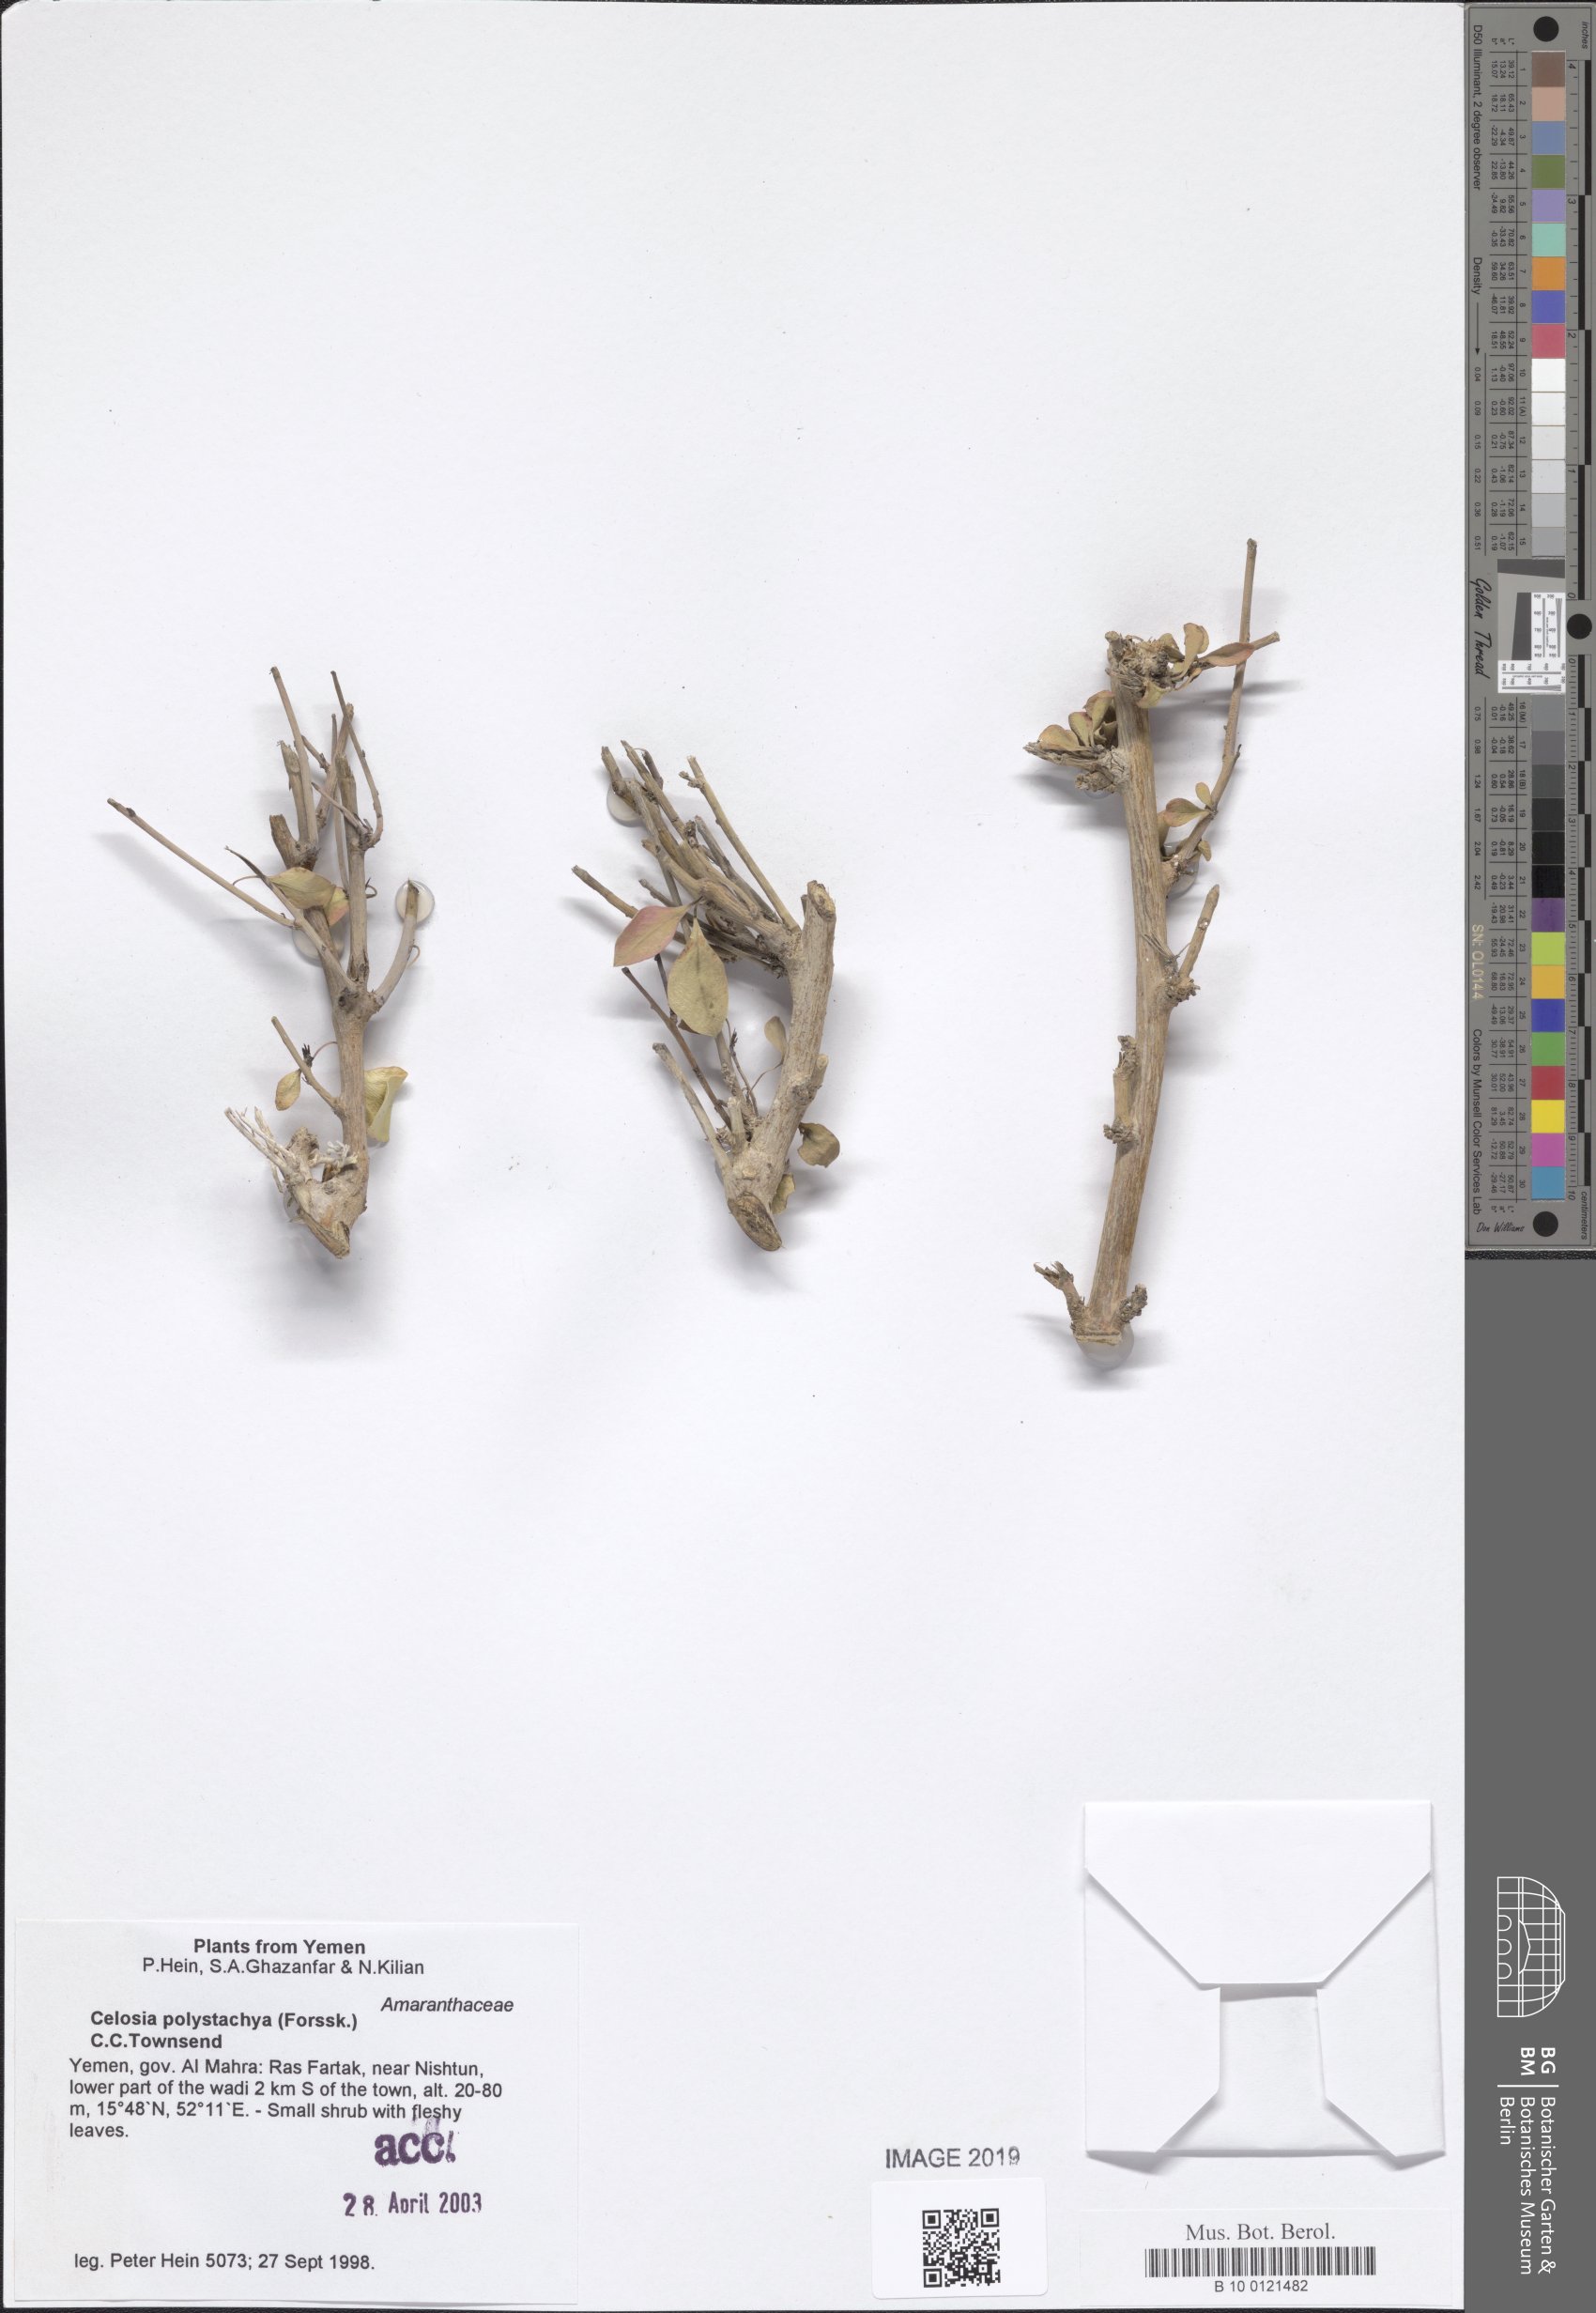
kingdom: Plantae
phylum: Tracheophyta
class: Magnoliopsida
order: Caryophyllales
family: Amaranthaceae
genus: Celosia
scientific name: Celosia polystachya
